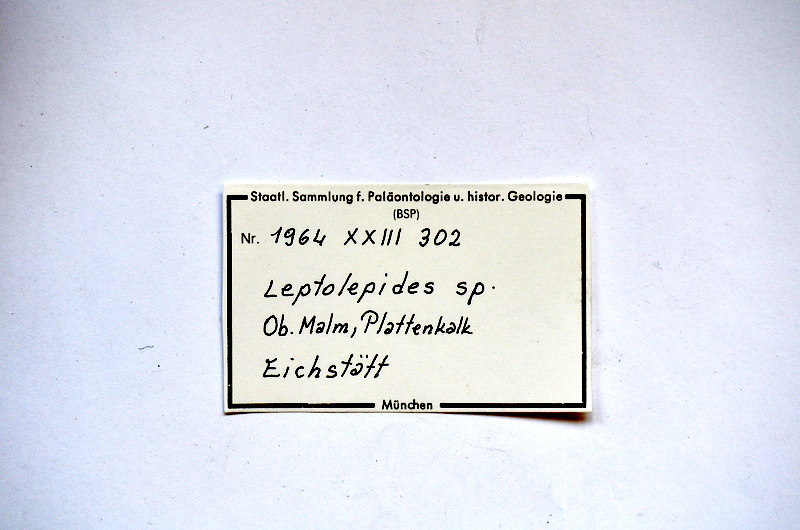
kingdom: Animalia
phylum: Chordata
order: Salmoniformes
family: Orthogonikleithridae
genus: Leptolepides
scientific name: Leptolepides
